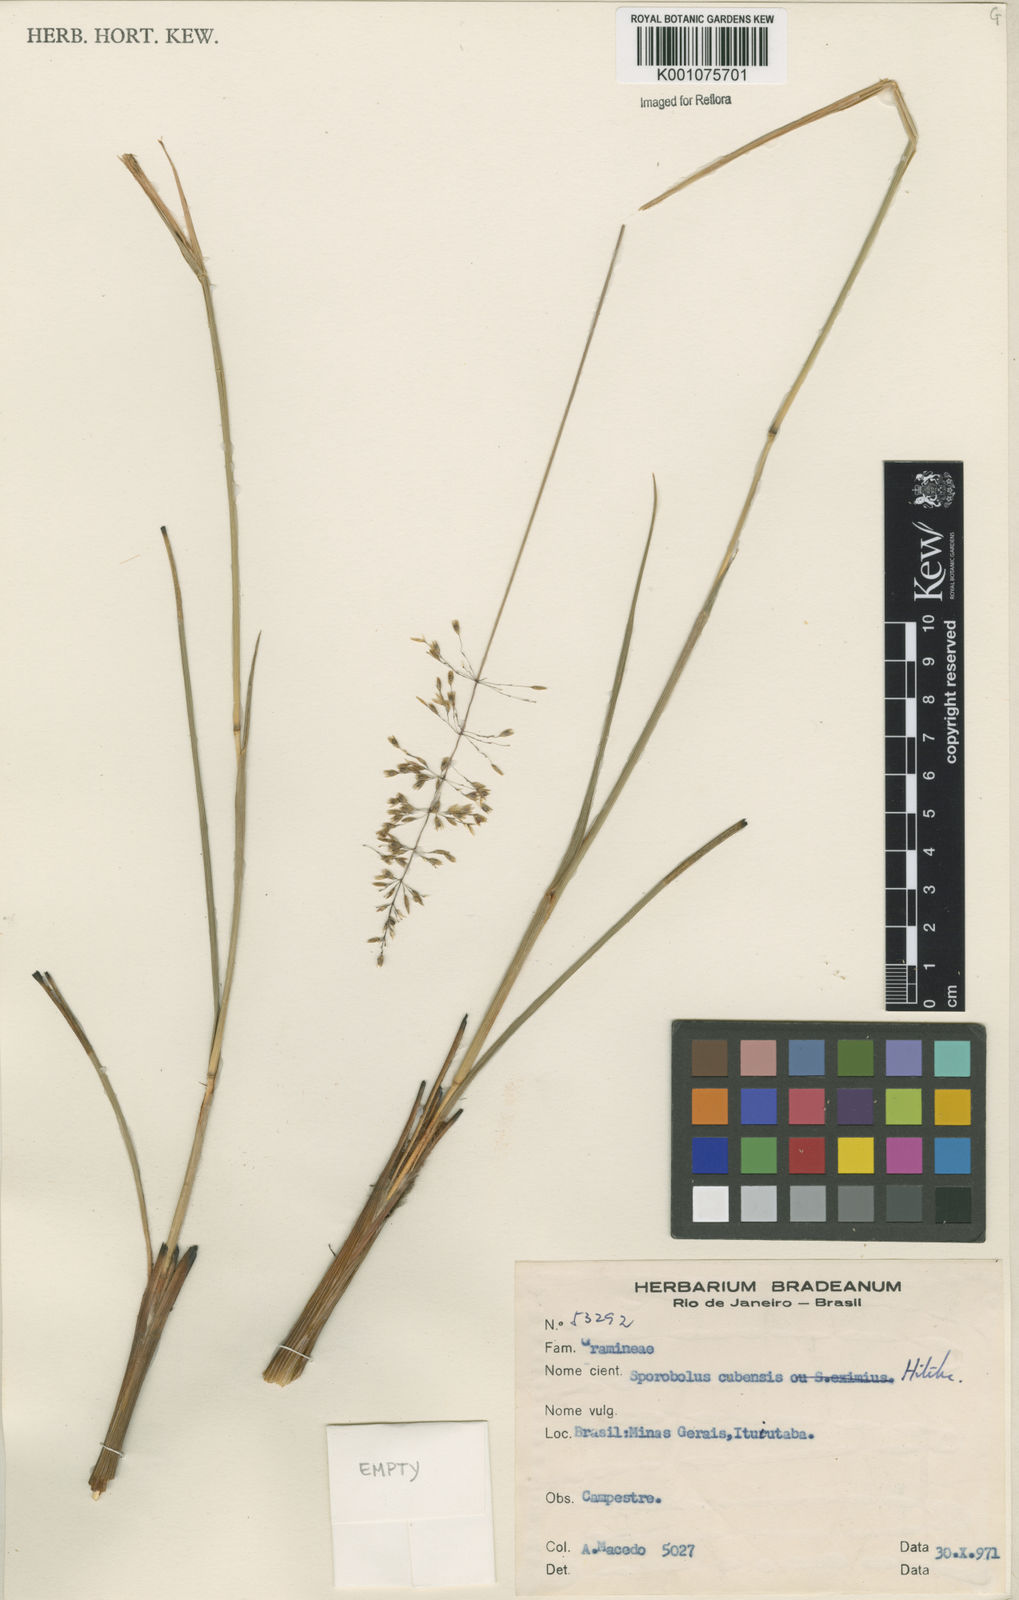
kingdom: Plantae
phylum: Tracheophyta
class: Liliopsida
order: Poales
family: Poaceae
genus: Sporobolus
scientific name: Sporobolus cubensis
